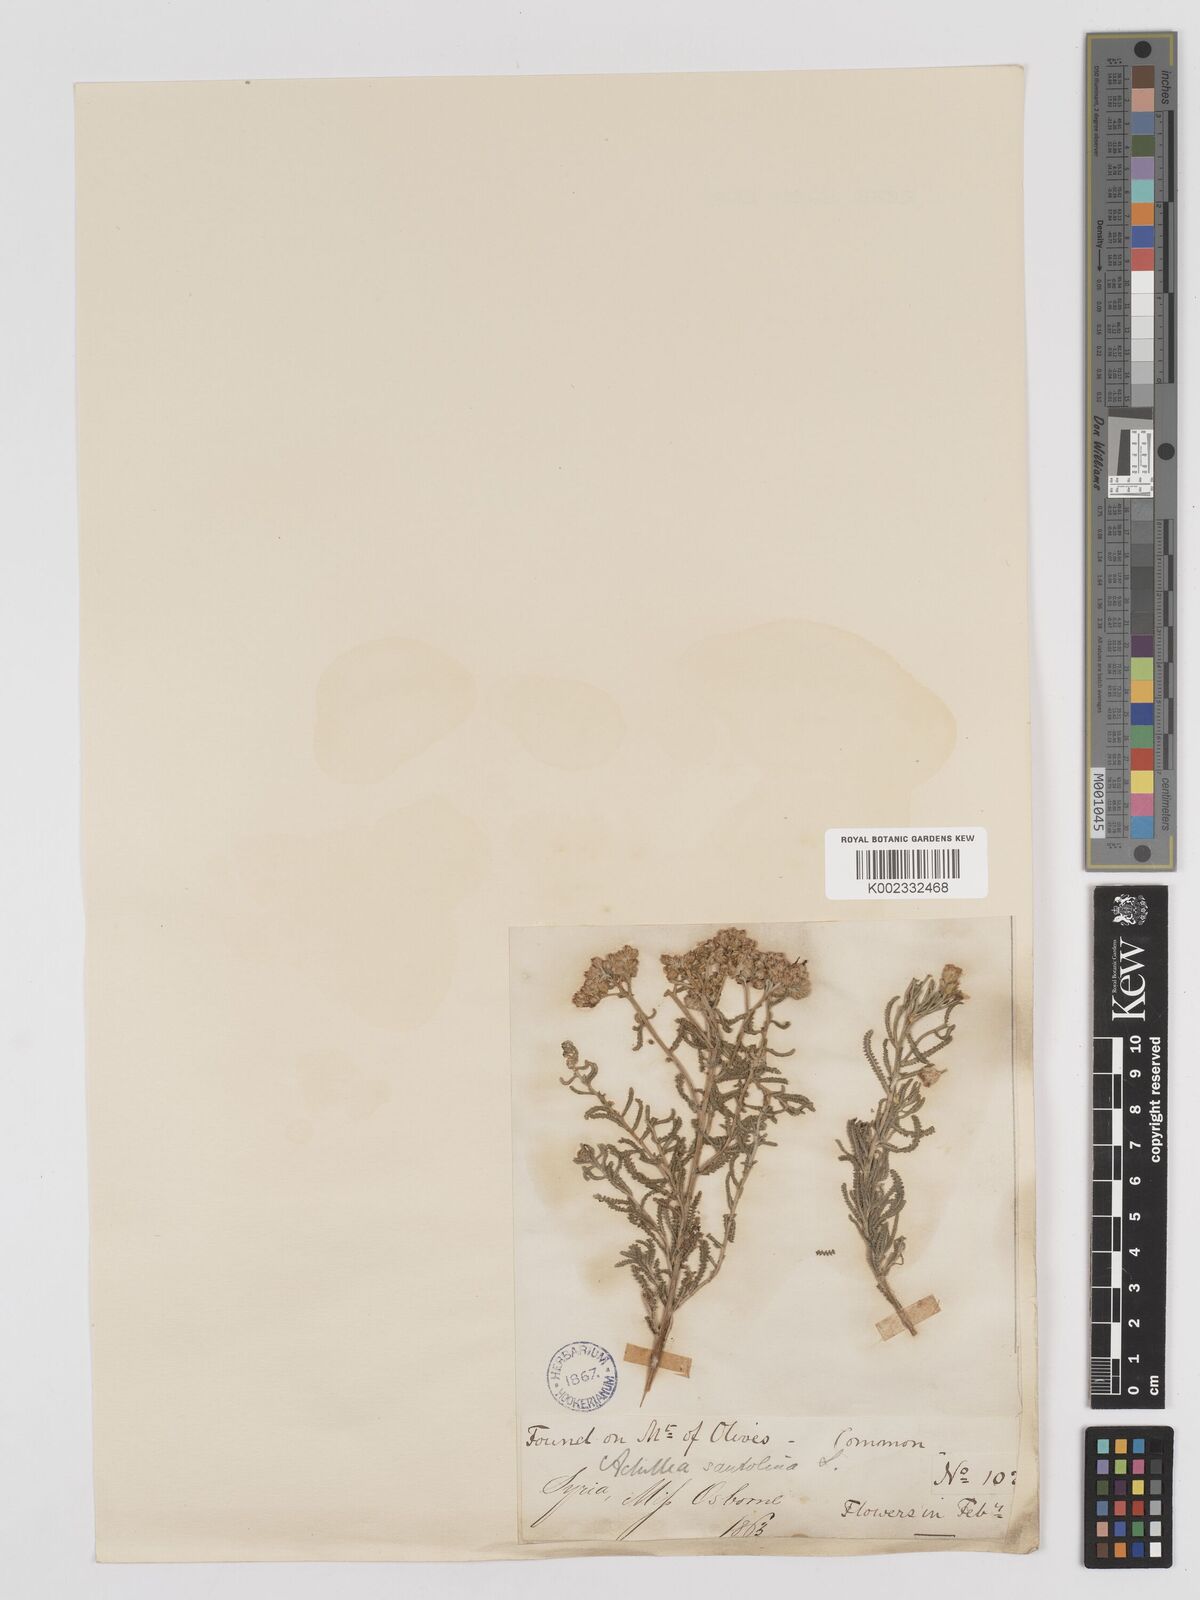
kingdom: Plantae
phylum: Tracheophyta
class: Magnoliopsida
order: Asterales
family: Asteraceae
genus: Achillea
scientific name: Achillea tenuifolia
